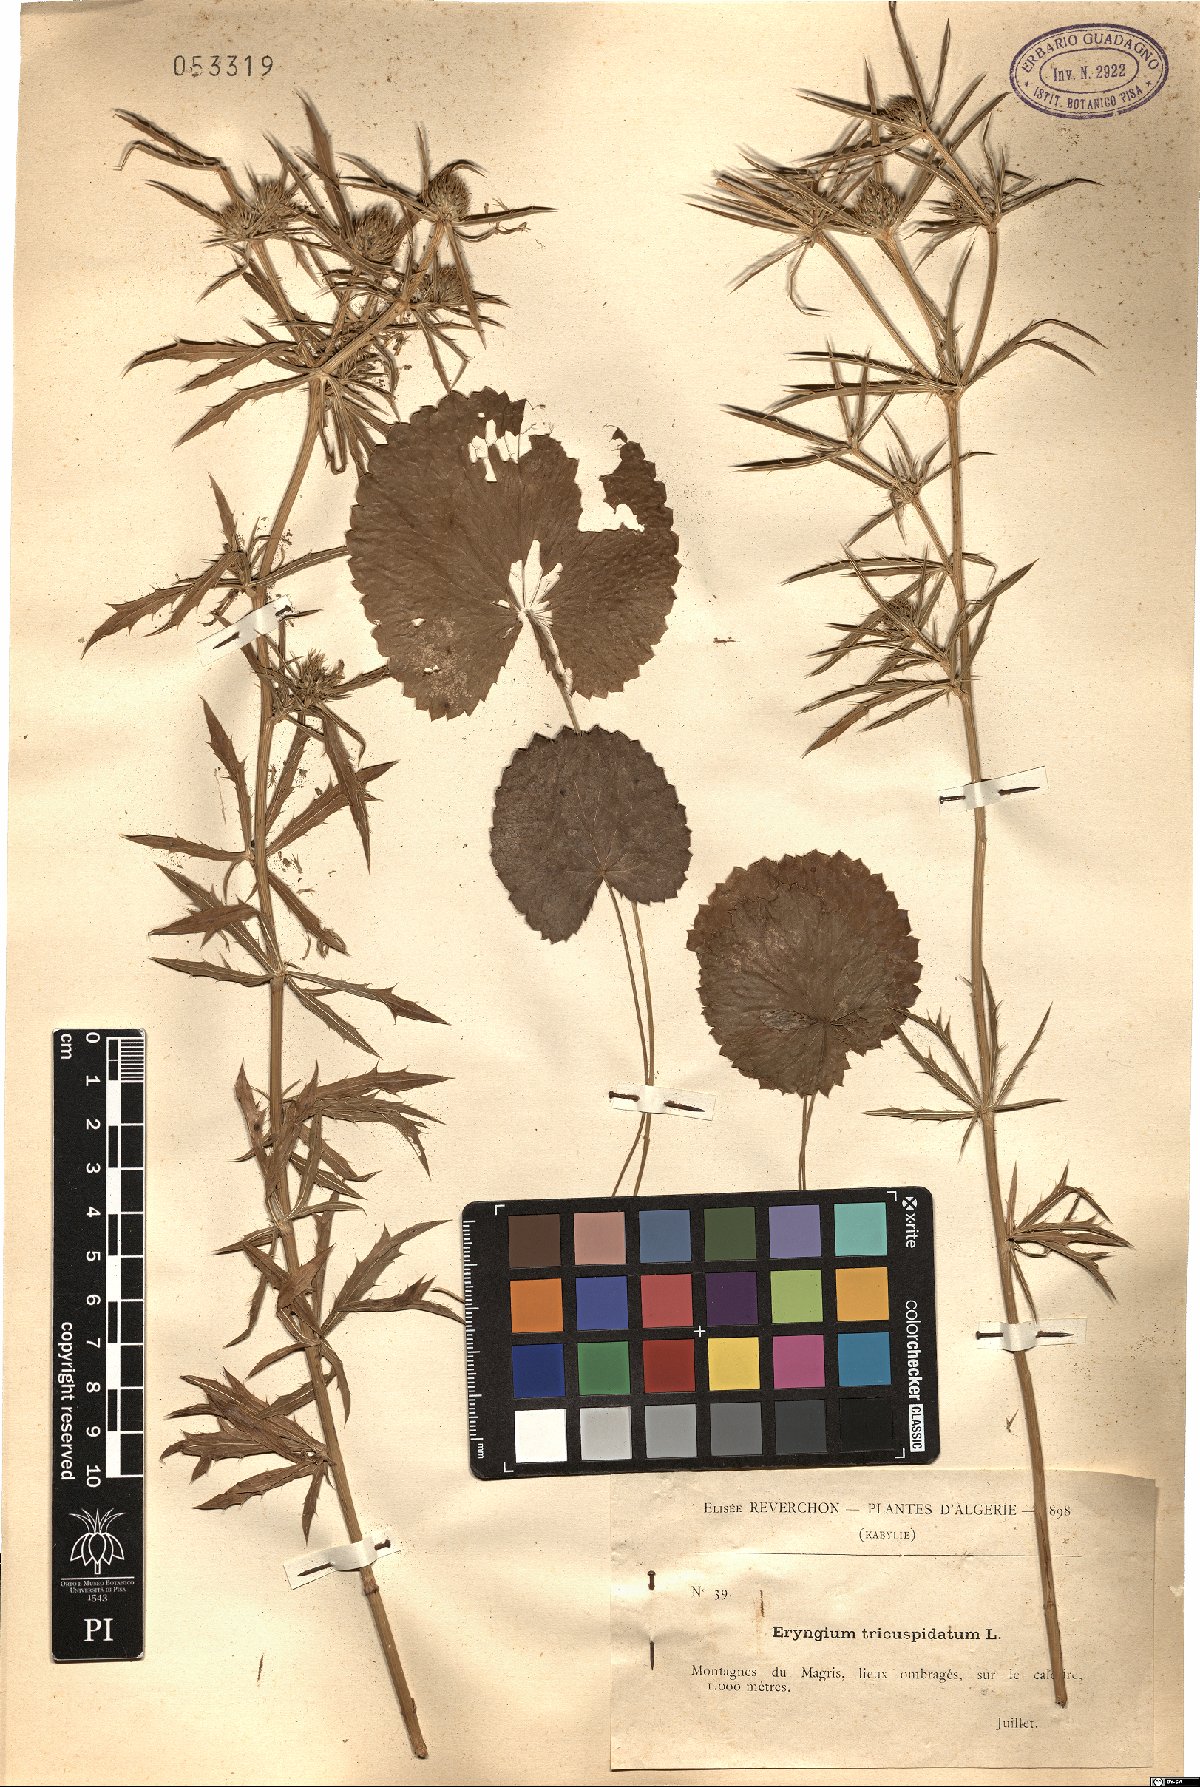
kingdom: Plantae
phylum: Tracheophyta
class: Magnoliopsida
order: Apiales
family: Apiaceae
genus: Eryngium
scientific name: Eryngium tricuspidatum
